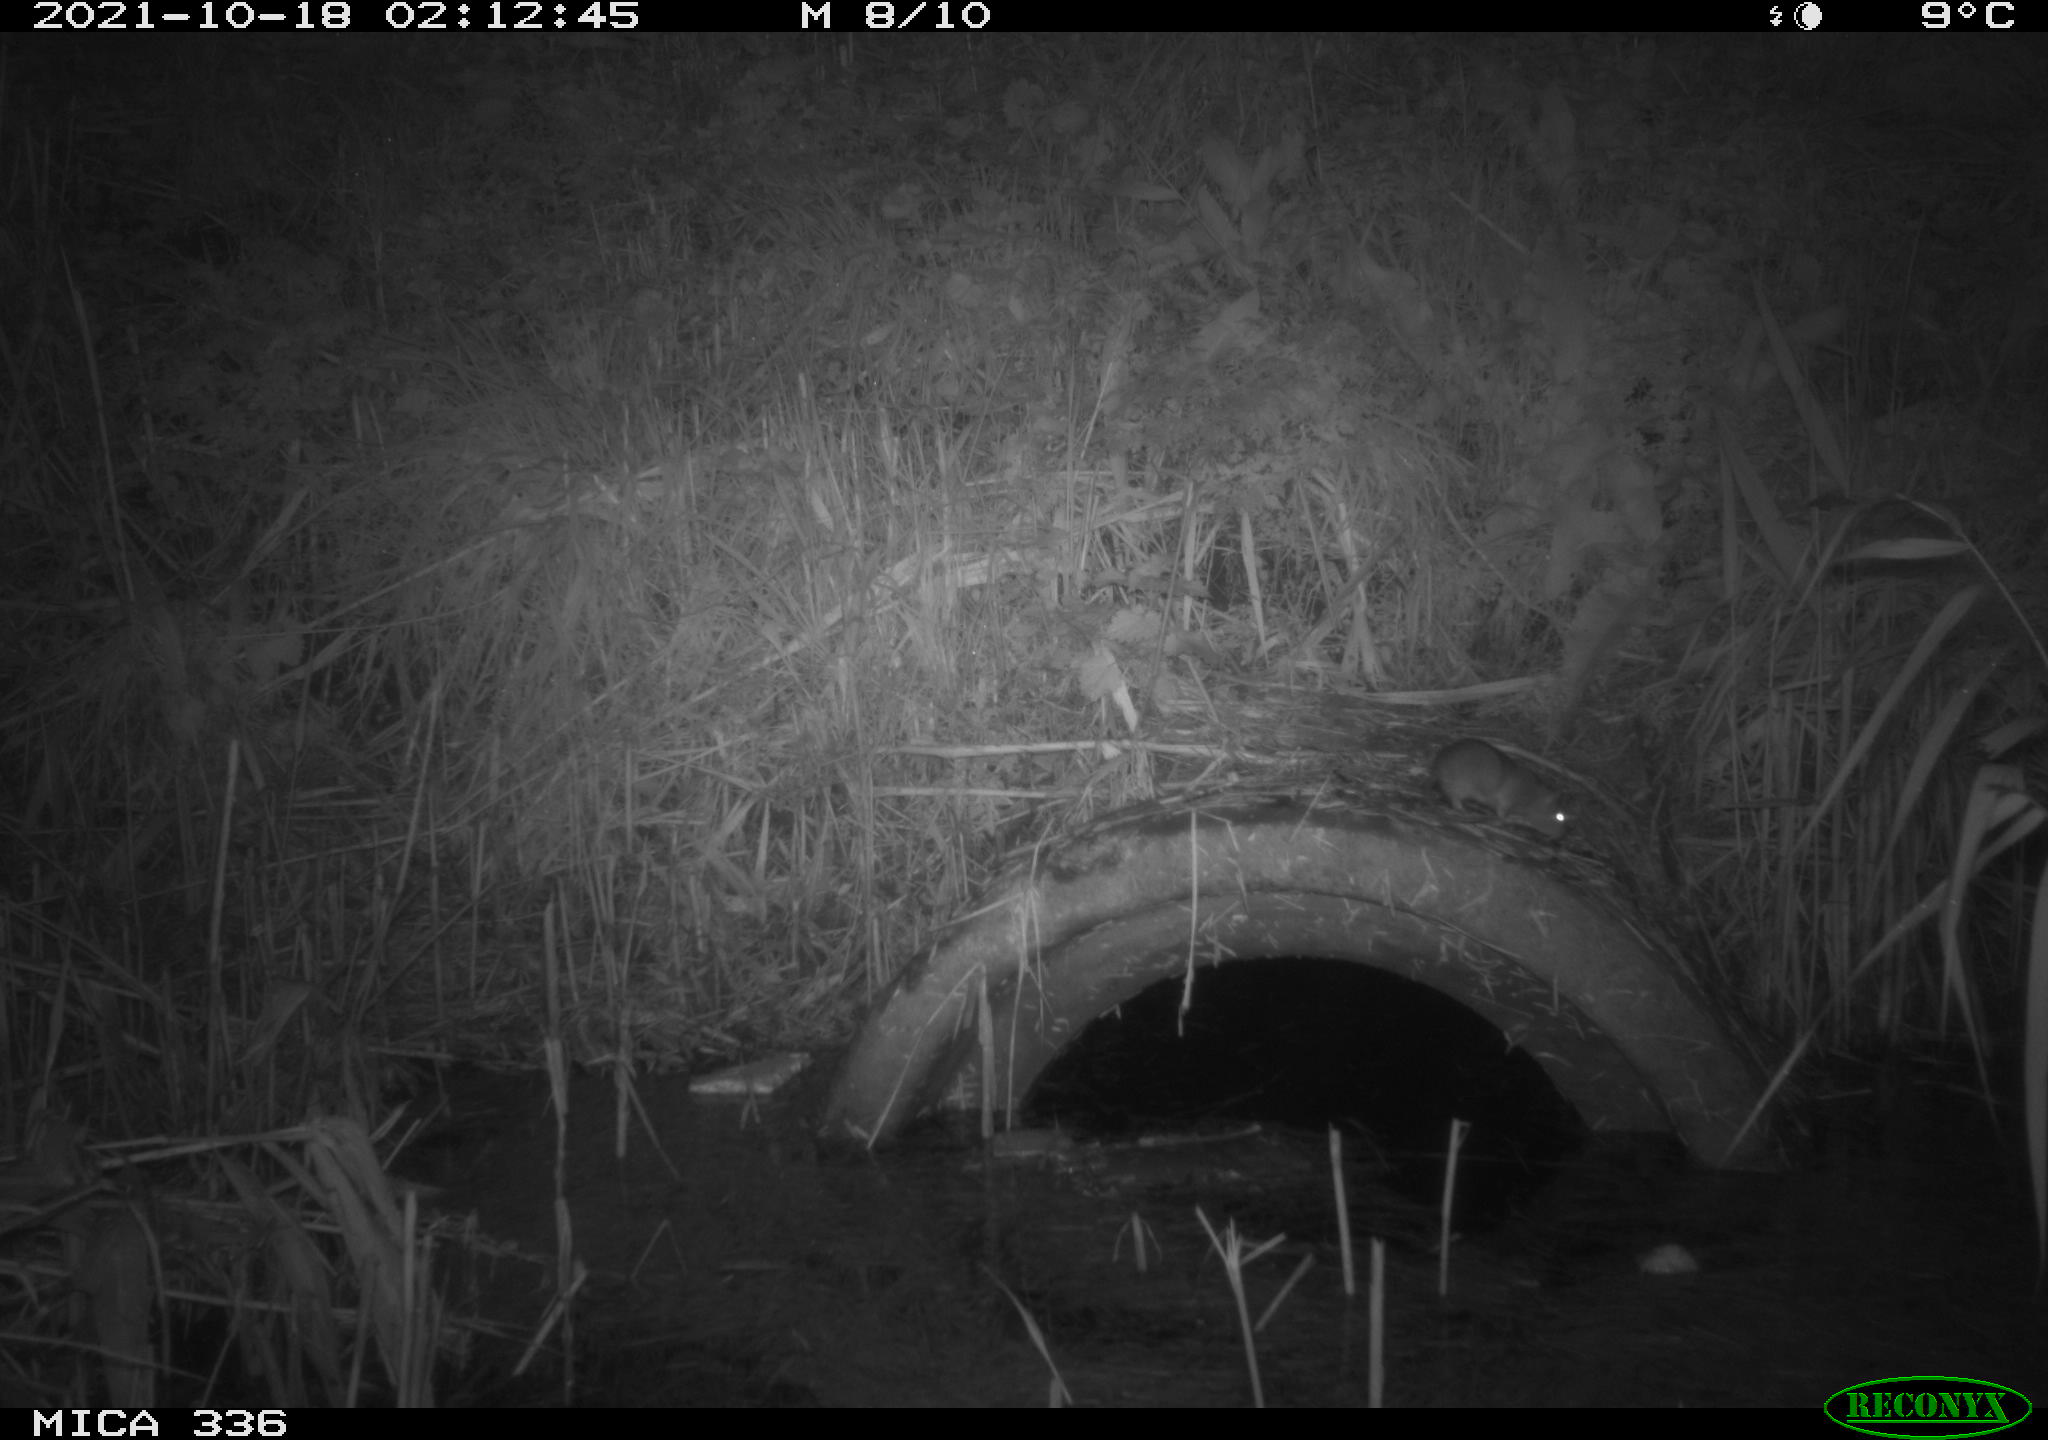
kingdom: Animalia
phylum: Chordata
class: Mammalia
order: Rodentia
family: Muridae
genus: Rattus
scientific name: Rattus norvegicus
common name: Brown rat
